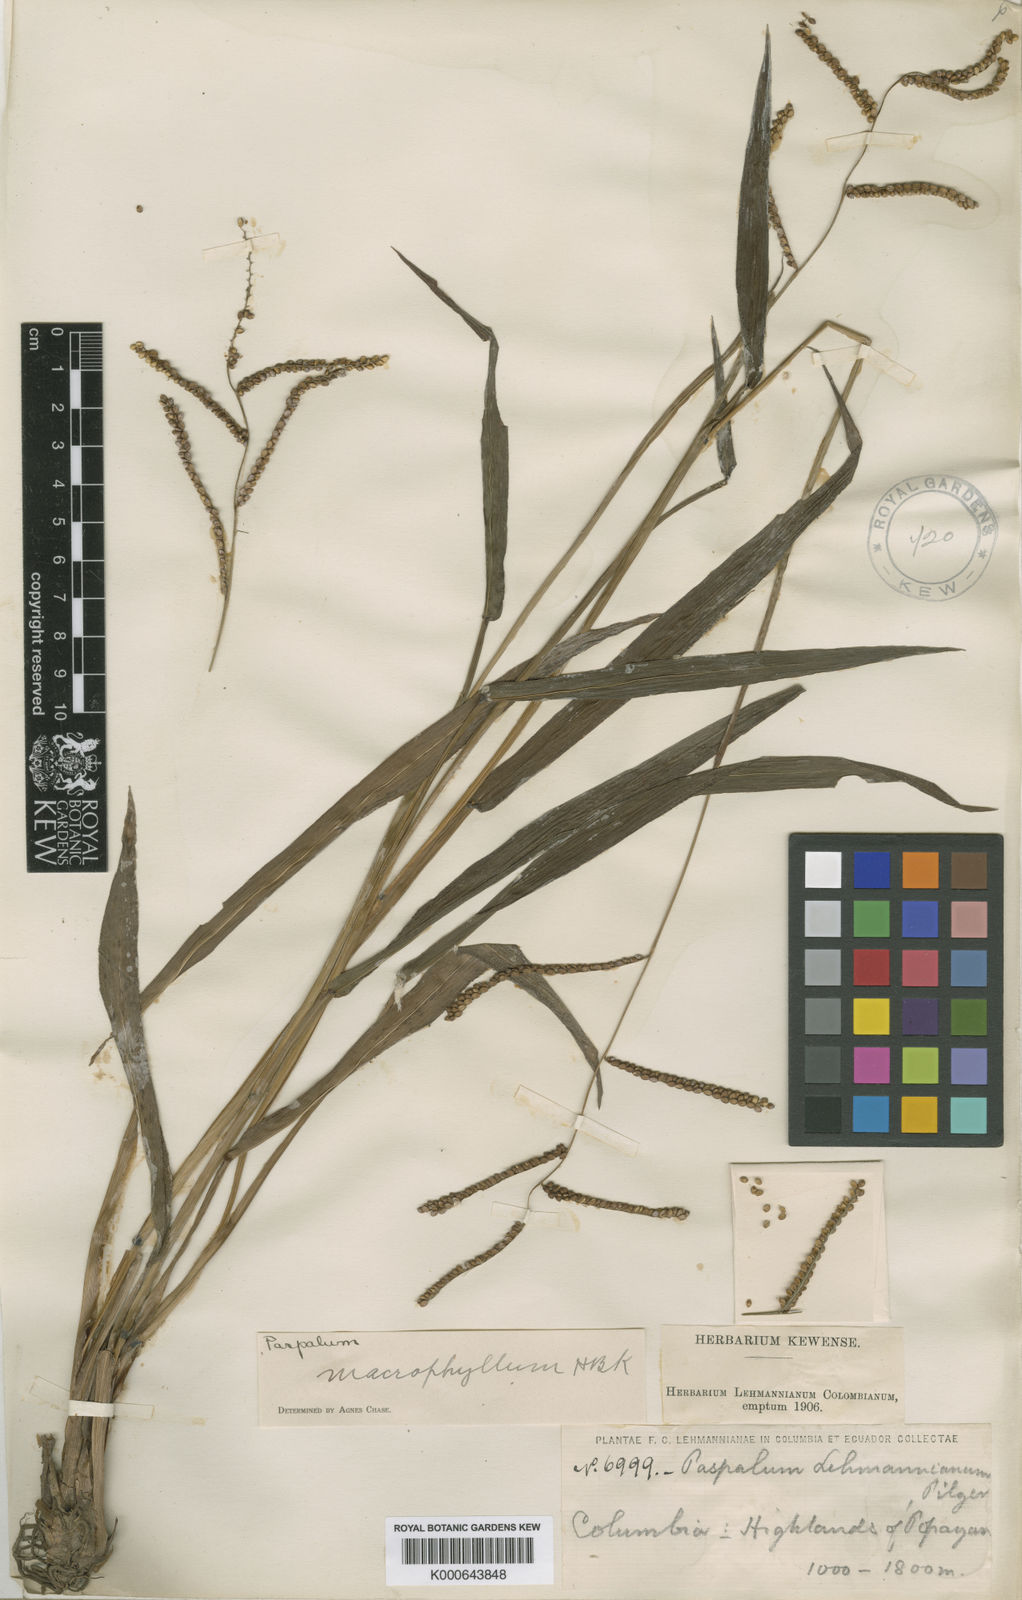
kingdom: Plantae
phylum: Tracheophyta
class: Liliopsida
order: Poales
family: Poaceae
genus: Paspalum
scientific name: Paspalum
